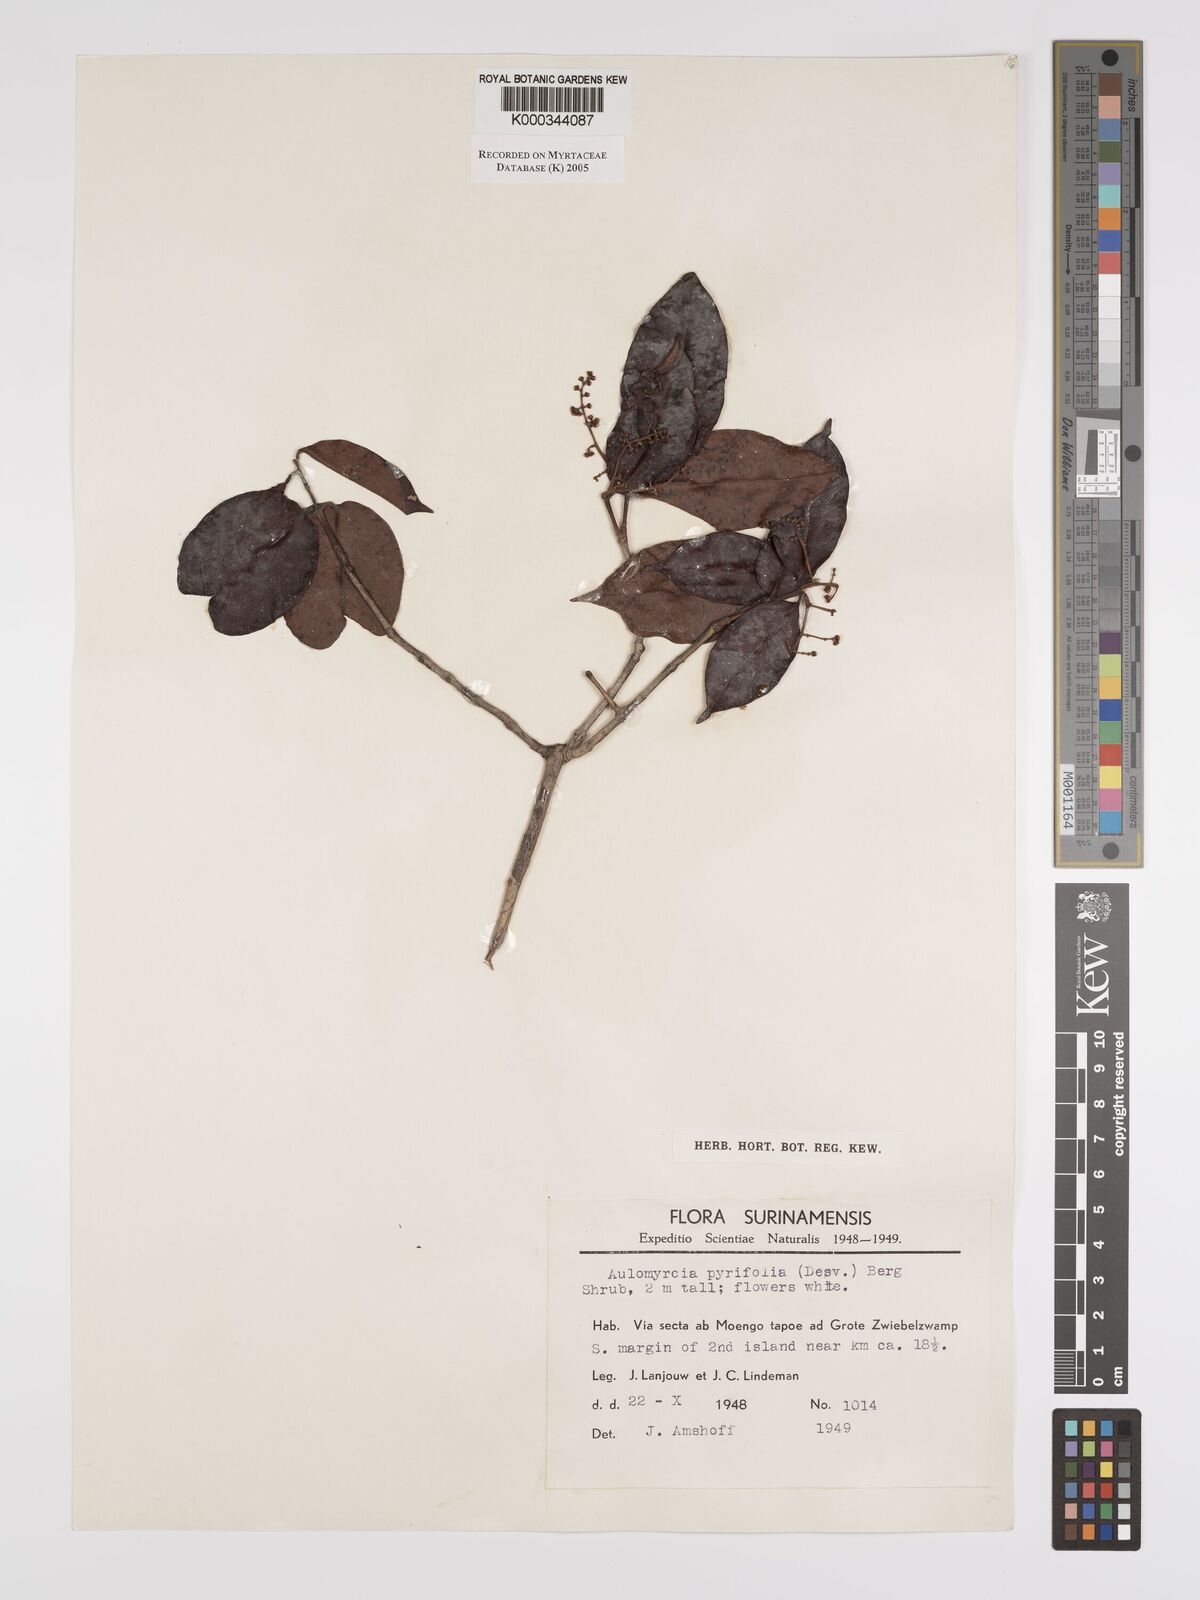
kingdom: Plantae
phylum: Tracheophyta
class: Magnoliopsida
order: Myrtales
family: Myrtaceae
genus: Myrcia
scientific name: Myrcia pyrifolia
